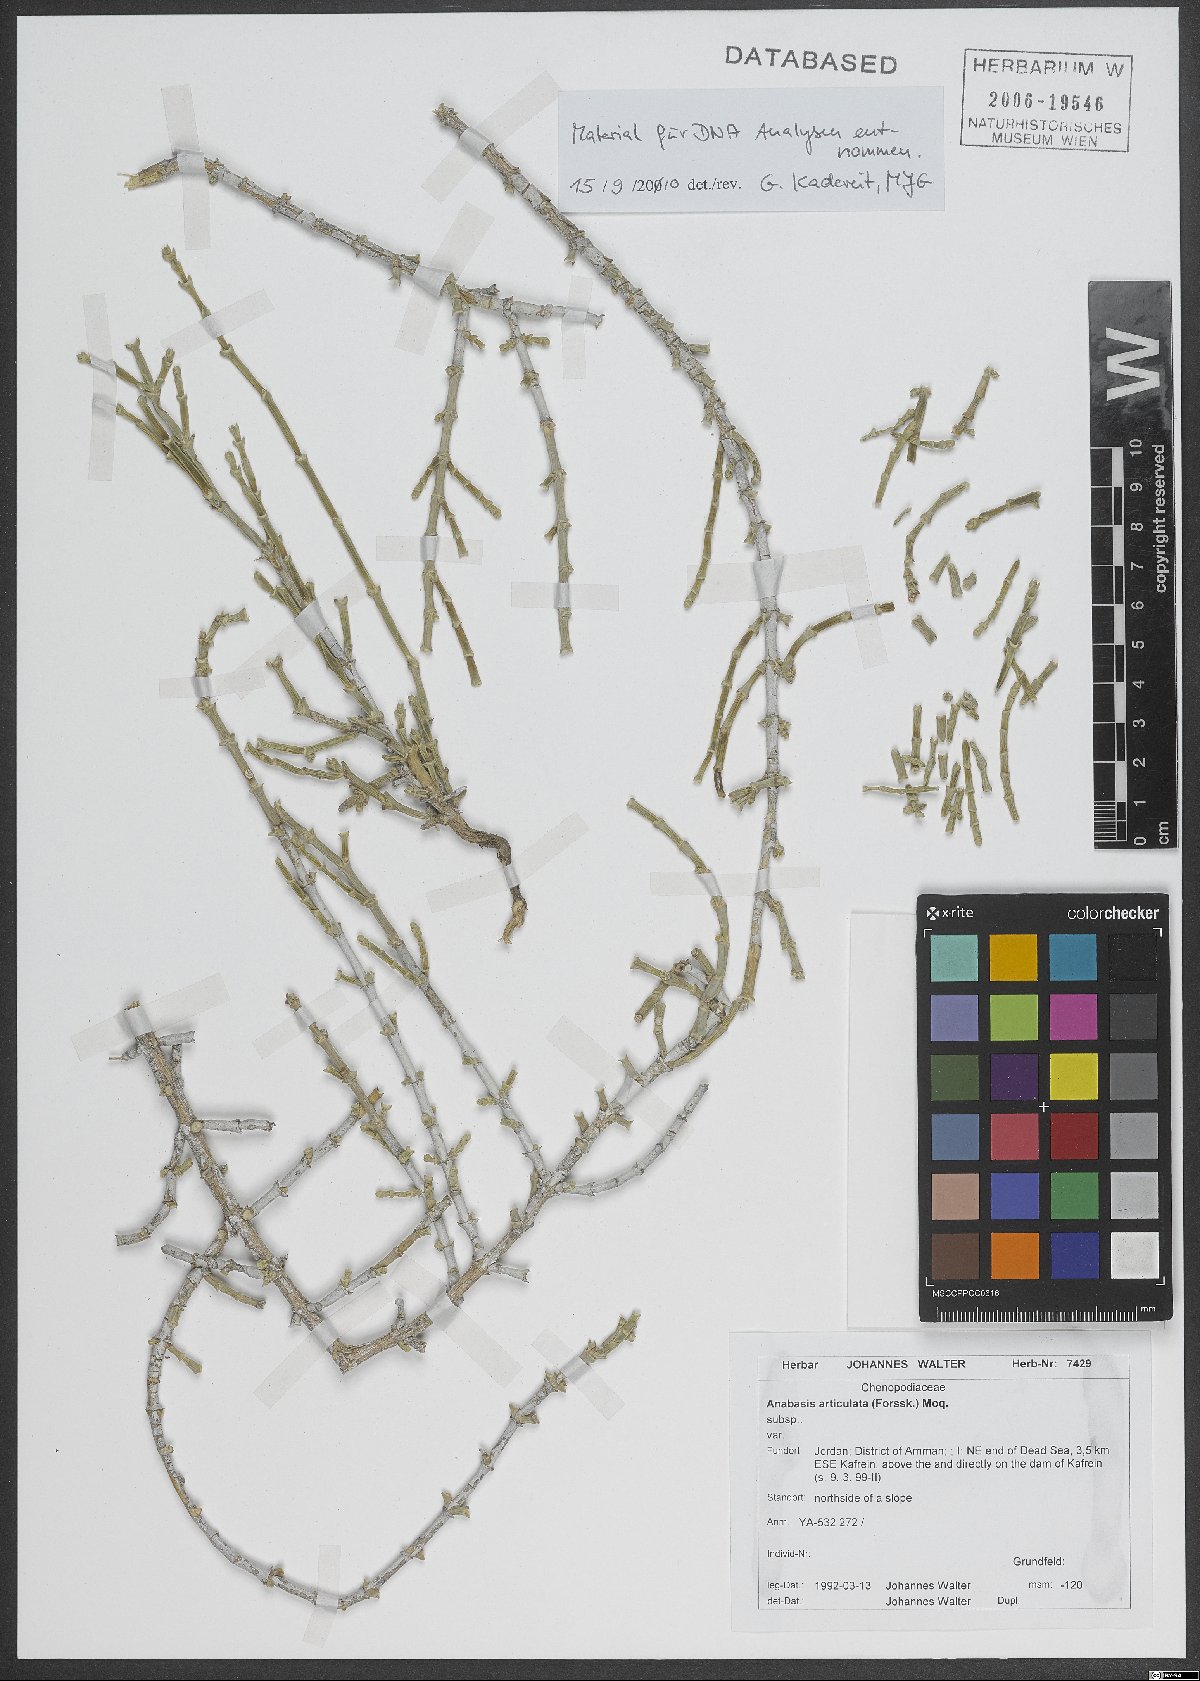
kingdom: Plantae
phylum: Tracheophyta
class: Magnoliopsida
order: Caryophyllales
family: Amaranthaceae
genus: Anabasis
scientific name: Anabasis articulata
